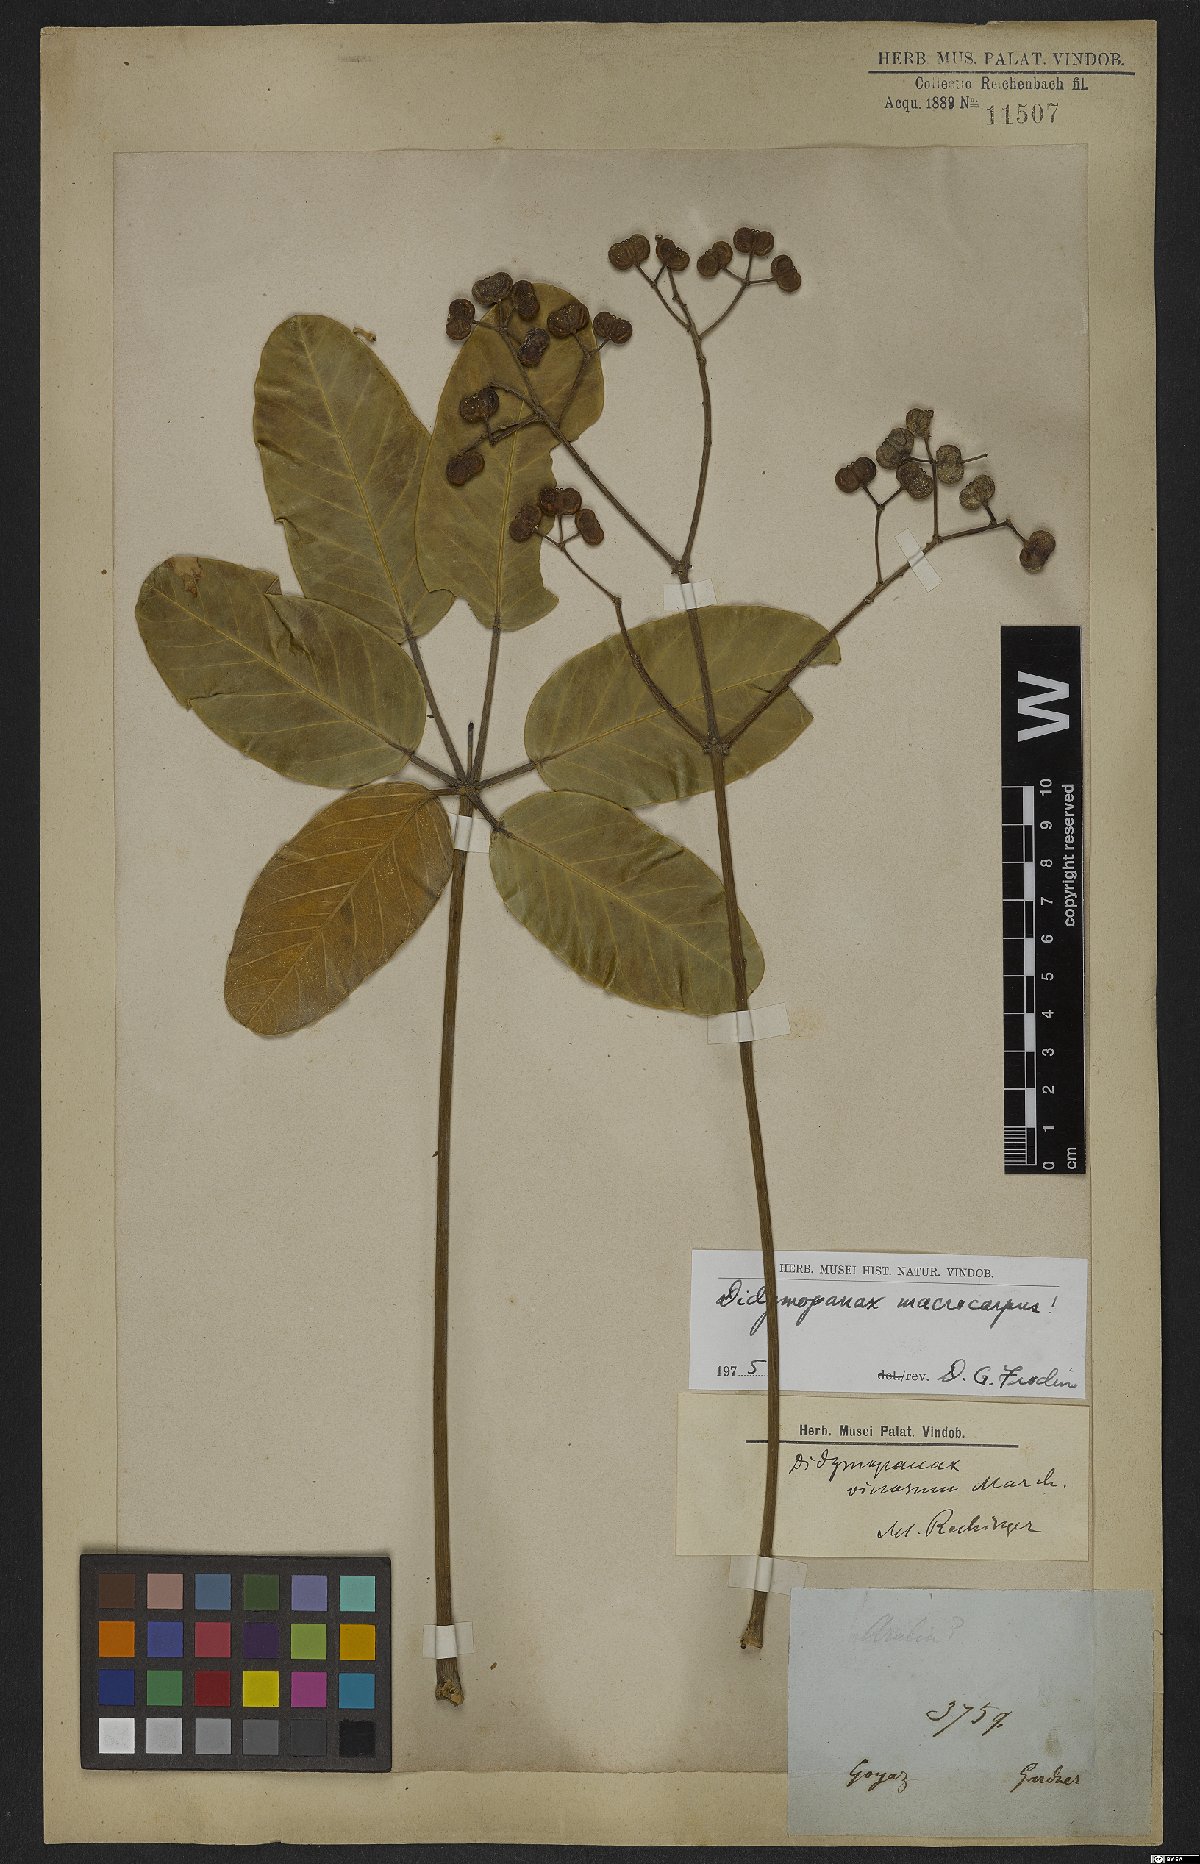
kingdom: Plantae
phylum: Tracheophyta
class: Magnoliopsida
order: Apiales
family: Araliaceae
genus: Didymopanax
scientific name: Didymopanax macrocarpus
